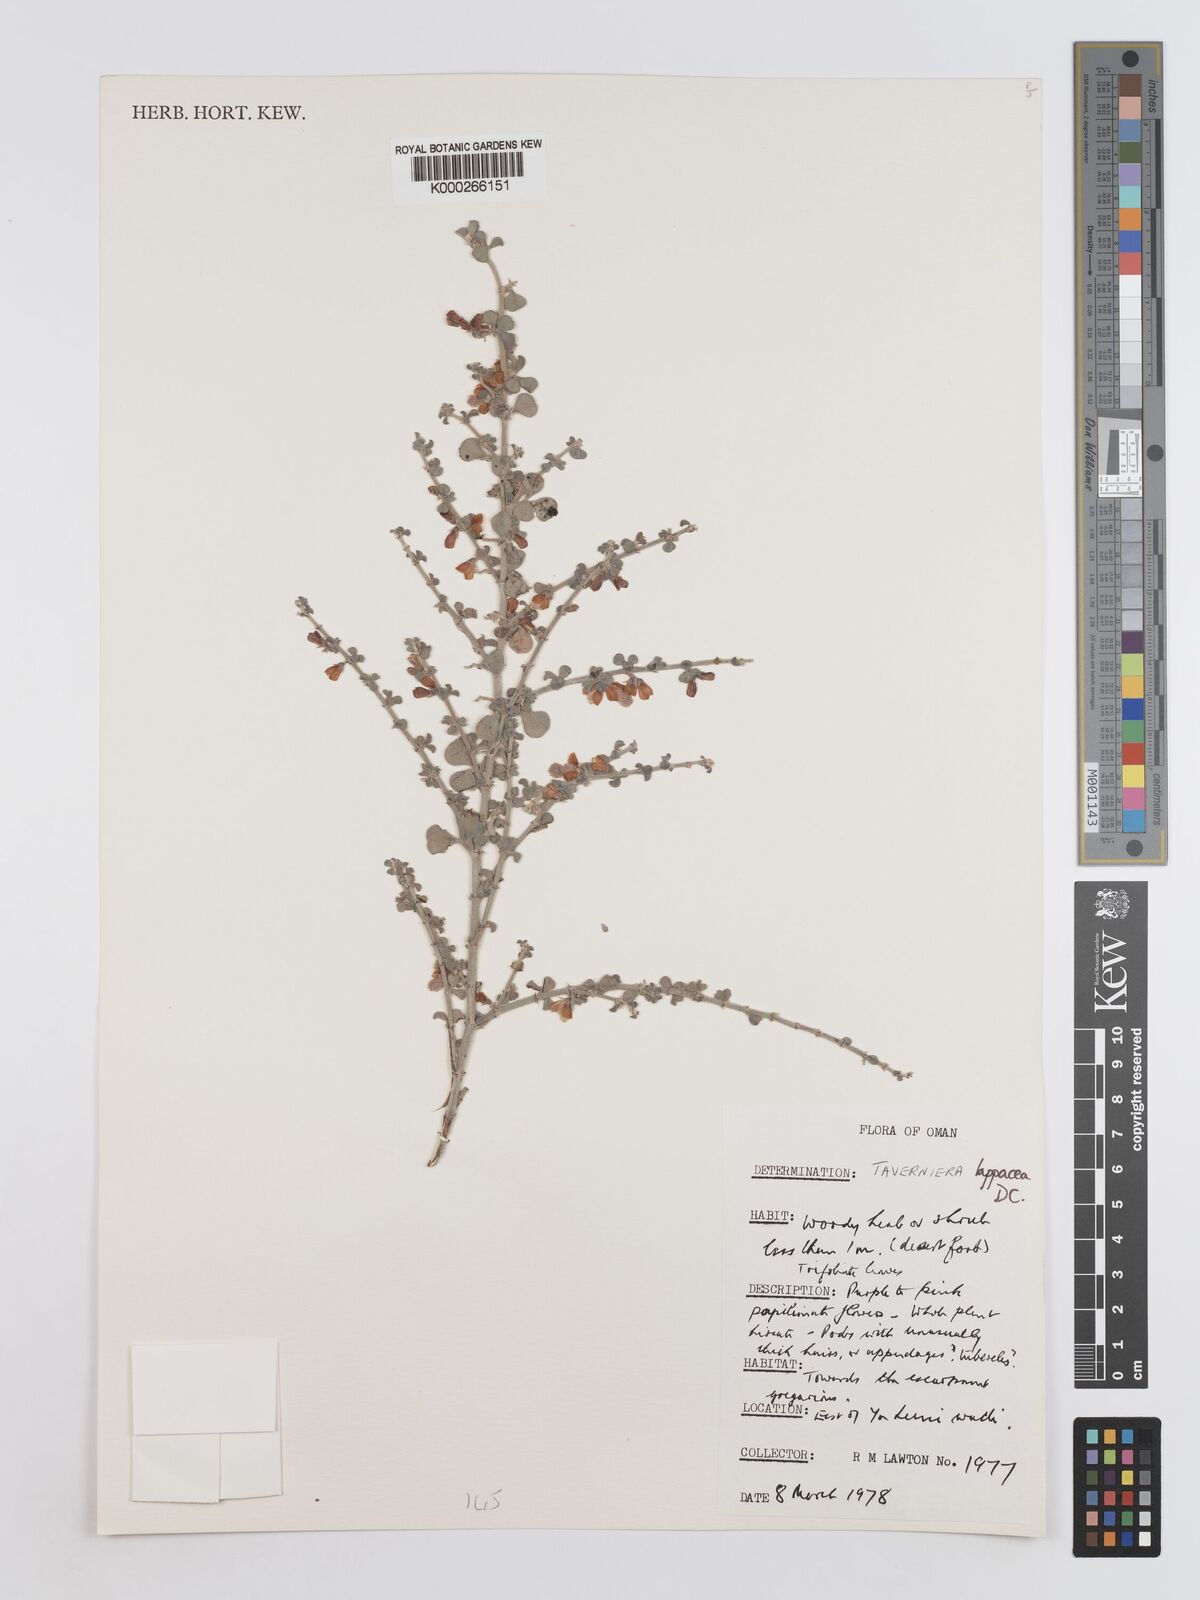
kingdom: Plantae
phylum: Tracheophyta
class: Magnoliopsida
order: Fabales
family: Fabaceae
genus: Taverniera
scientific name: Taverniera lappacea
